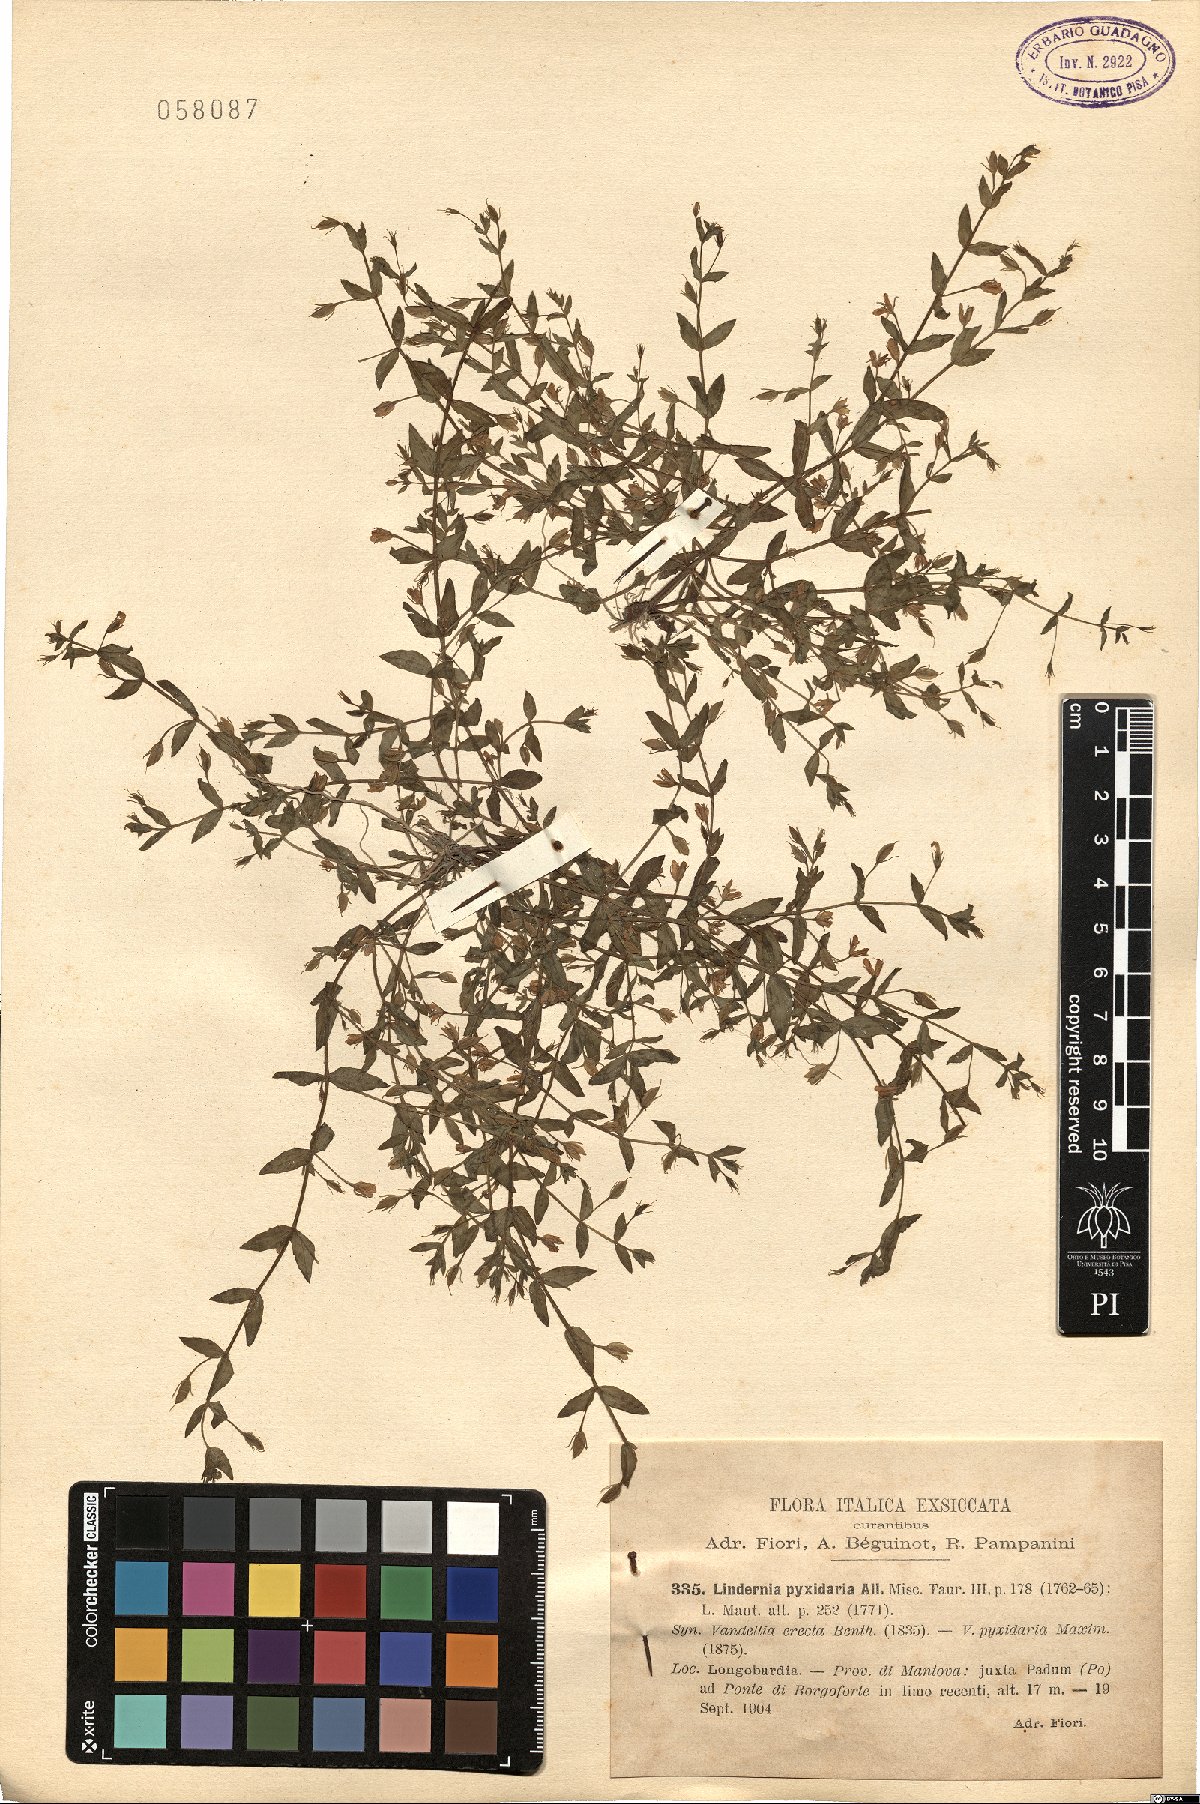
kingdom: Plantae
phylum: Tracheophyta
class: Magnoliopsida
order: Lamiales
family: Linderniaceae
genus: Lindernia
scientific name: Lindernia dubia
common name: Annual false pimpernel
